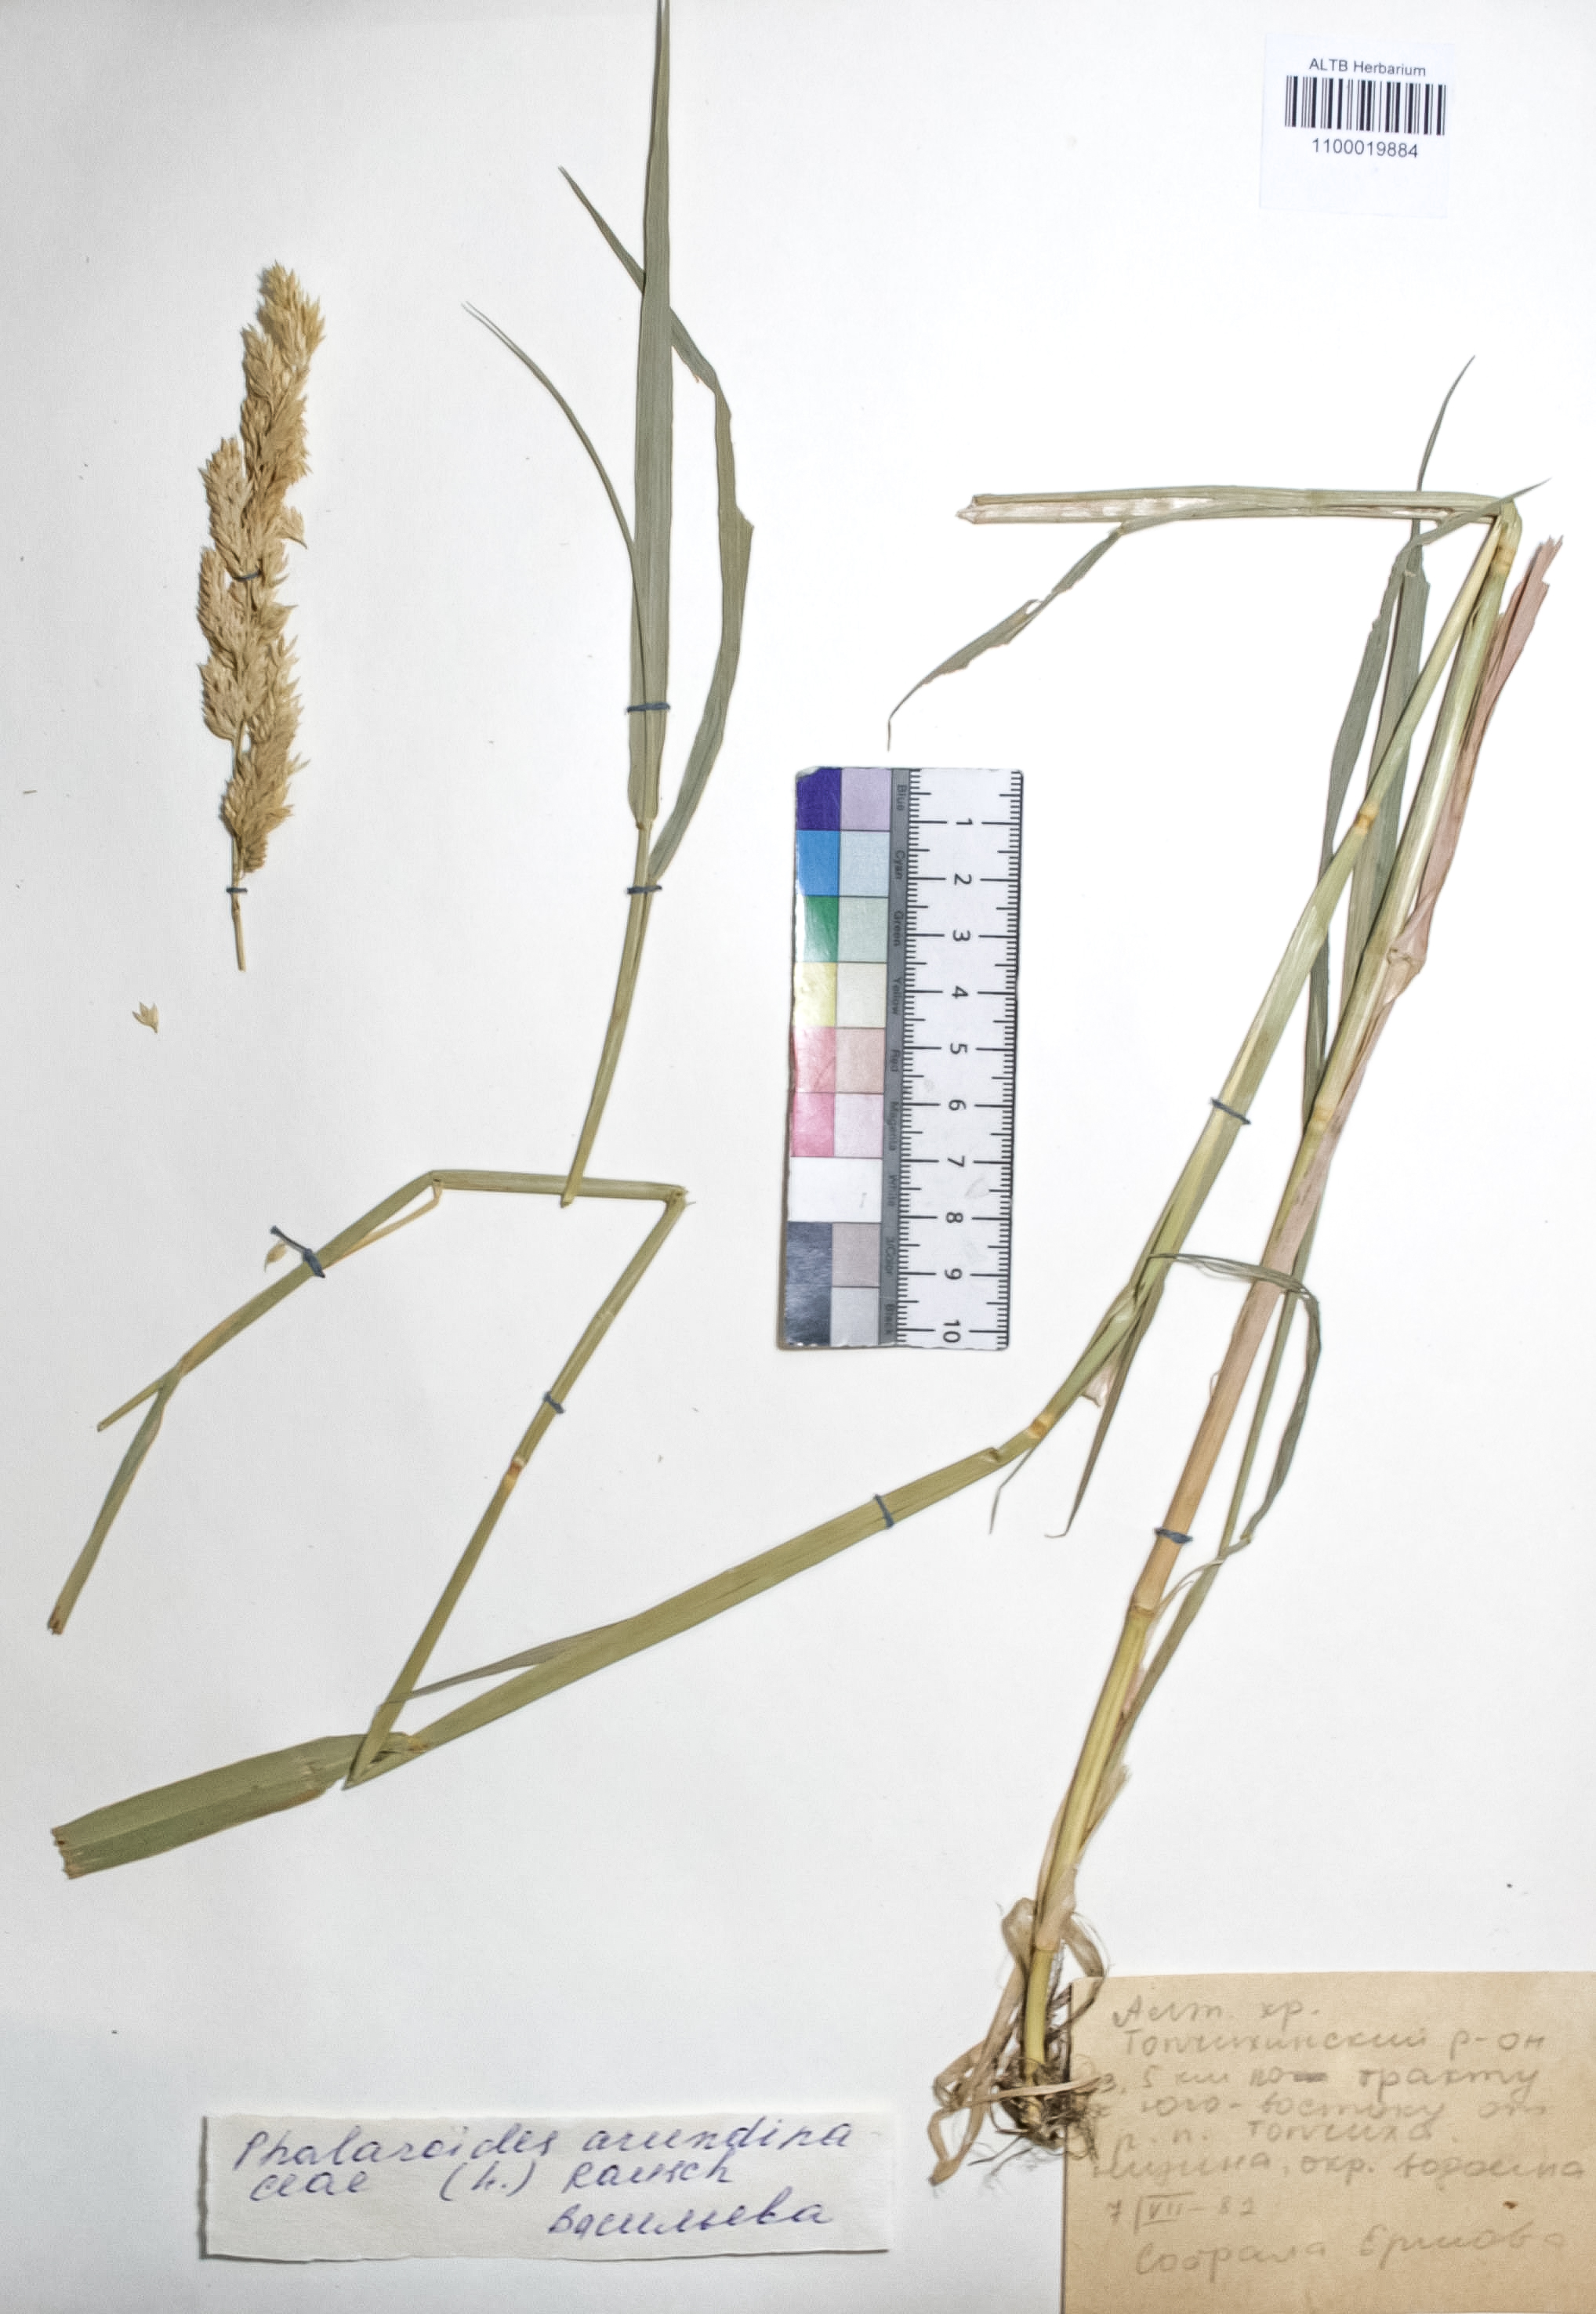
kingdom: Plantae
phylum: Tracheophyta
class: Liliopsida
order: Poales
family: Poaceae
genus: Phalaris
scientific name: Phalaris arundinacea
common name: Reed canary-grass
